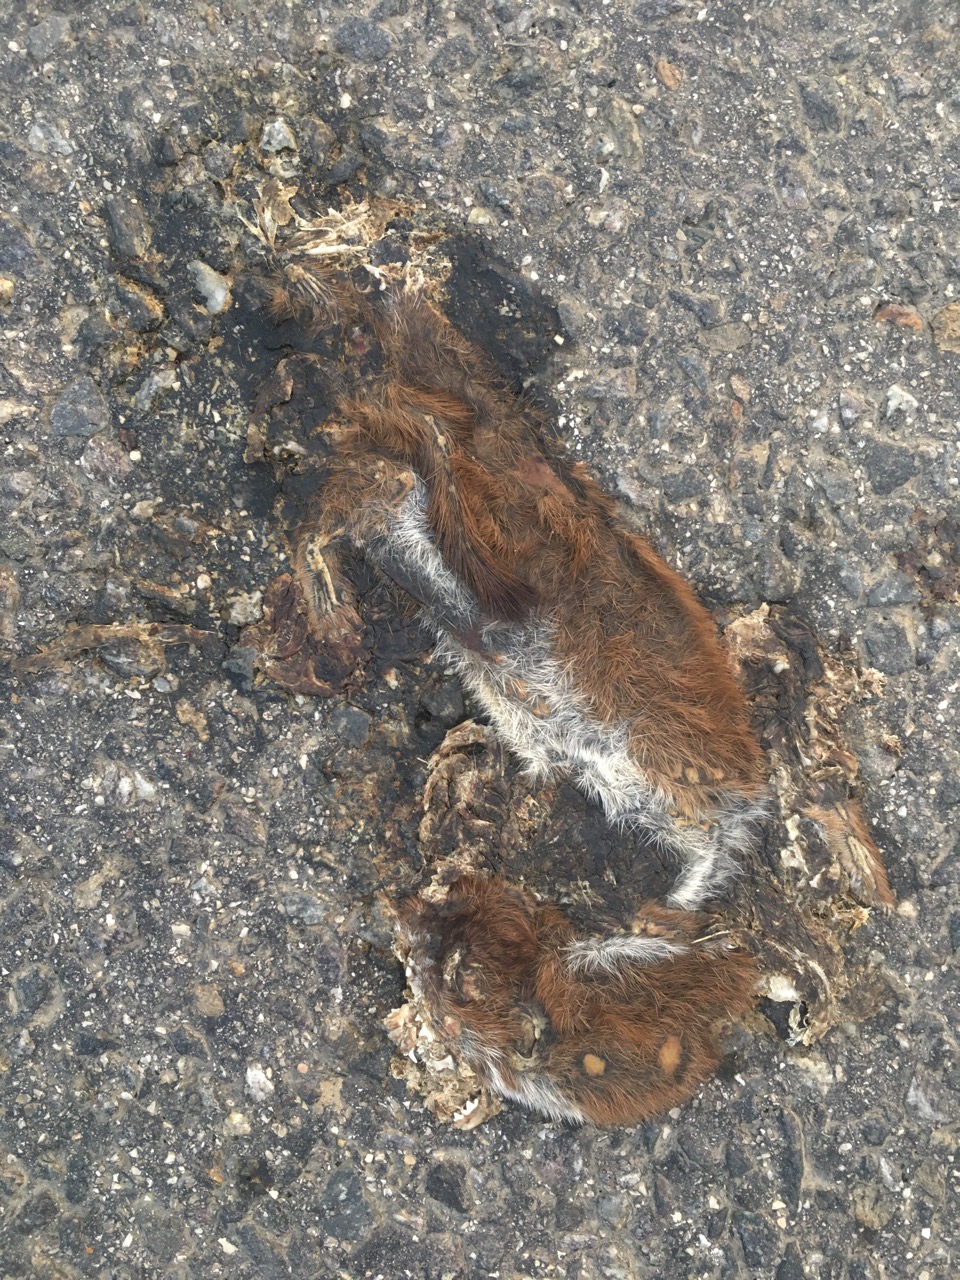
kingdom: Animalia
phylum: Chordata
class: Mammalia
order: Carnivora
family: Mustelidae
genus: Mustela
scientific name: Mustela nivalis
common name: Least weasel
